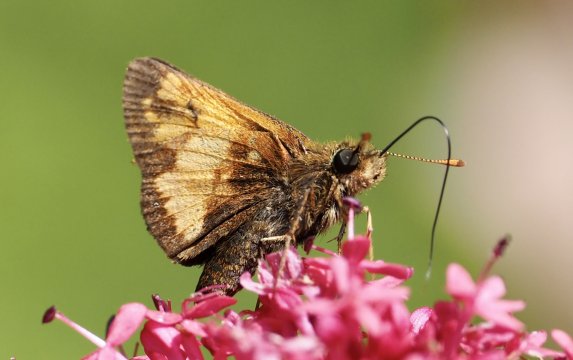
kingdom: Animalia
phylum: Arthropoda
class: Insecta
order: Lepidoptera
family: Hesperiidae
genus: Lon
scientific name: Lon hobomok
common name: Hobomok Skipper
